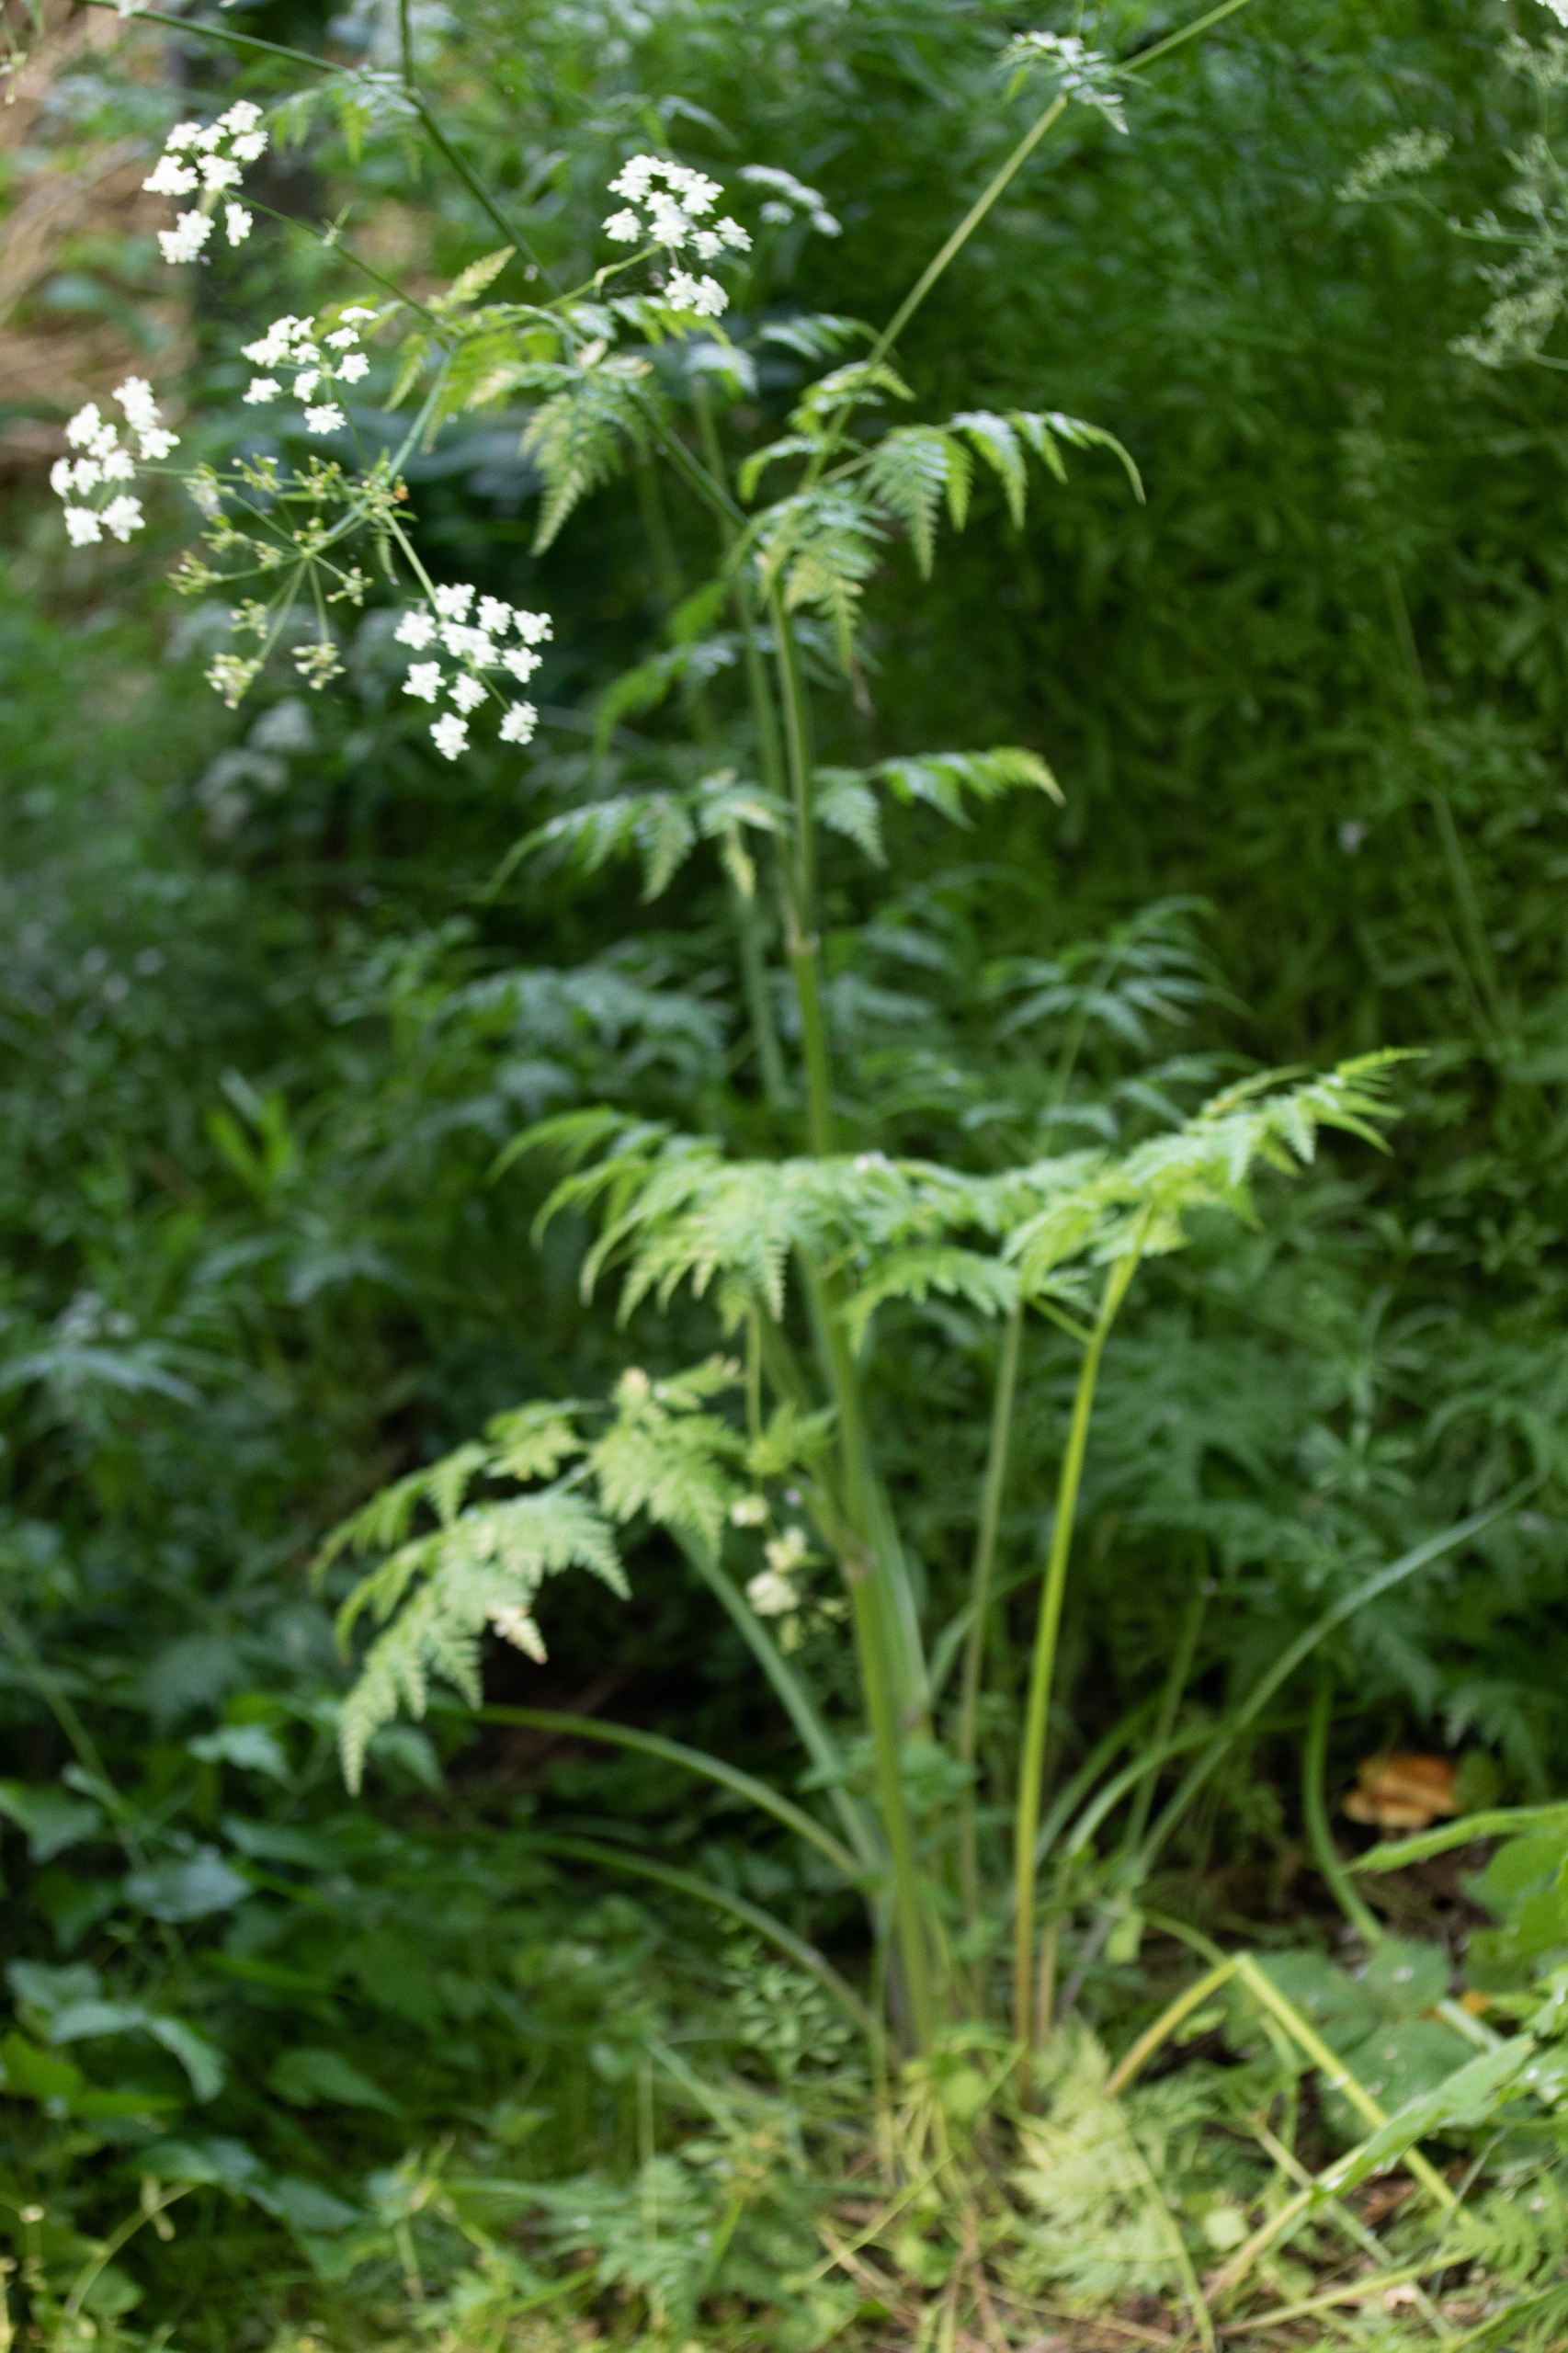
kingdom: Plantae
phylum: Tracheophyta
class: Magnoliopsida
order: Apiales
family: Apiaceae
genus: Anthriscus
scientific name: Anthriscus sylvestris
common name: Vild kørvel
